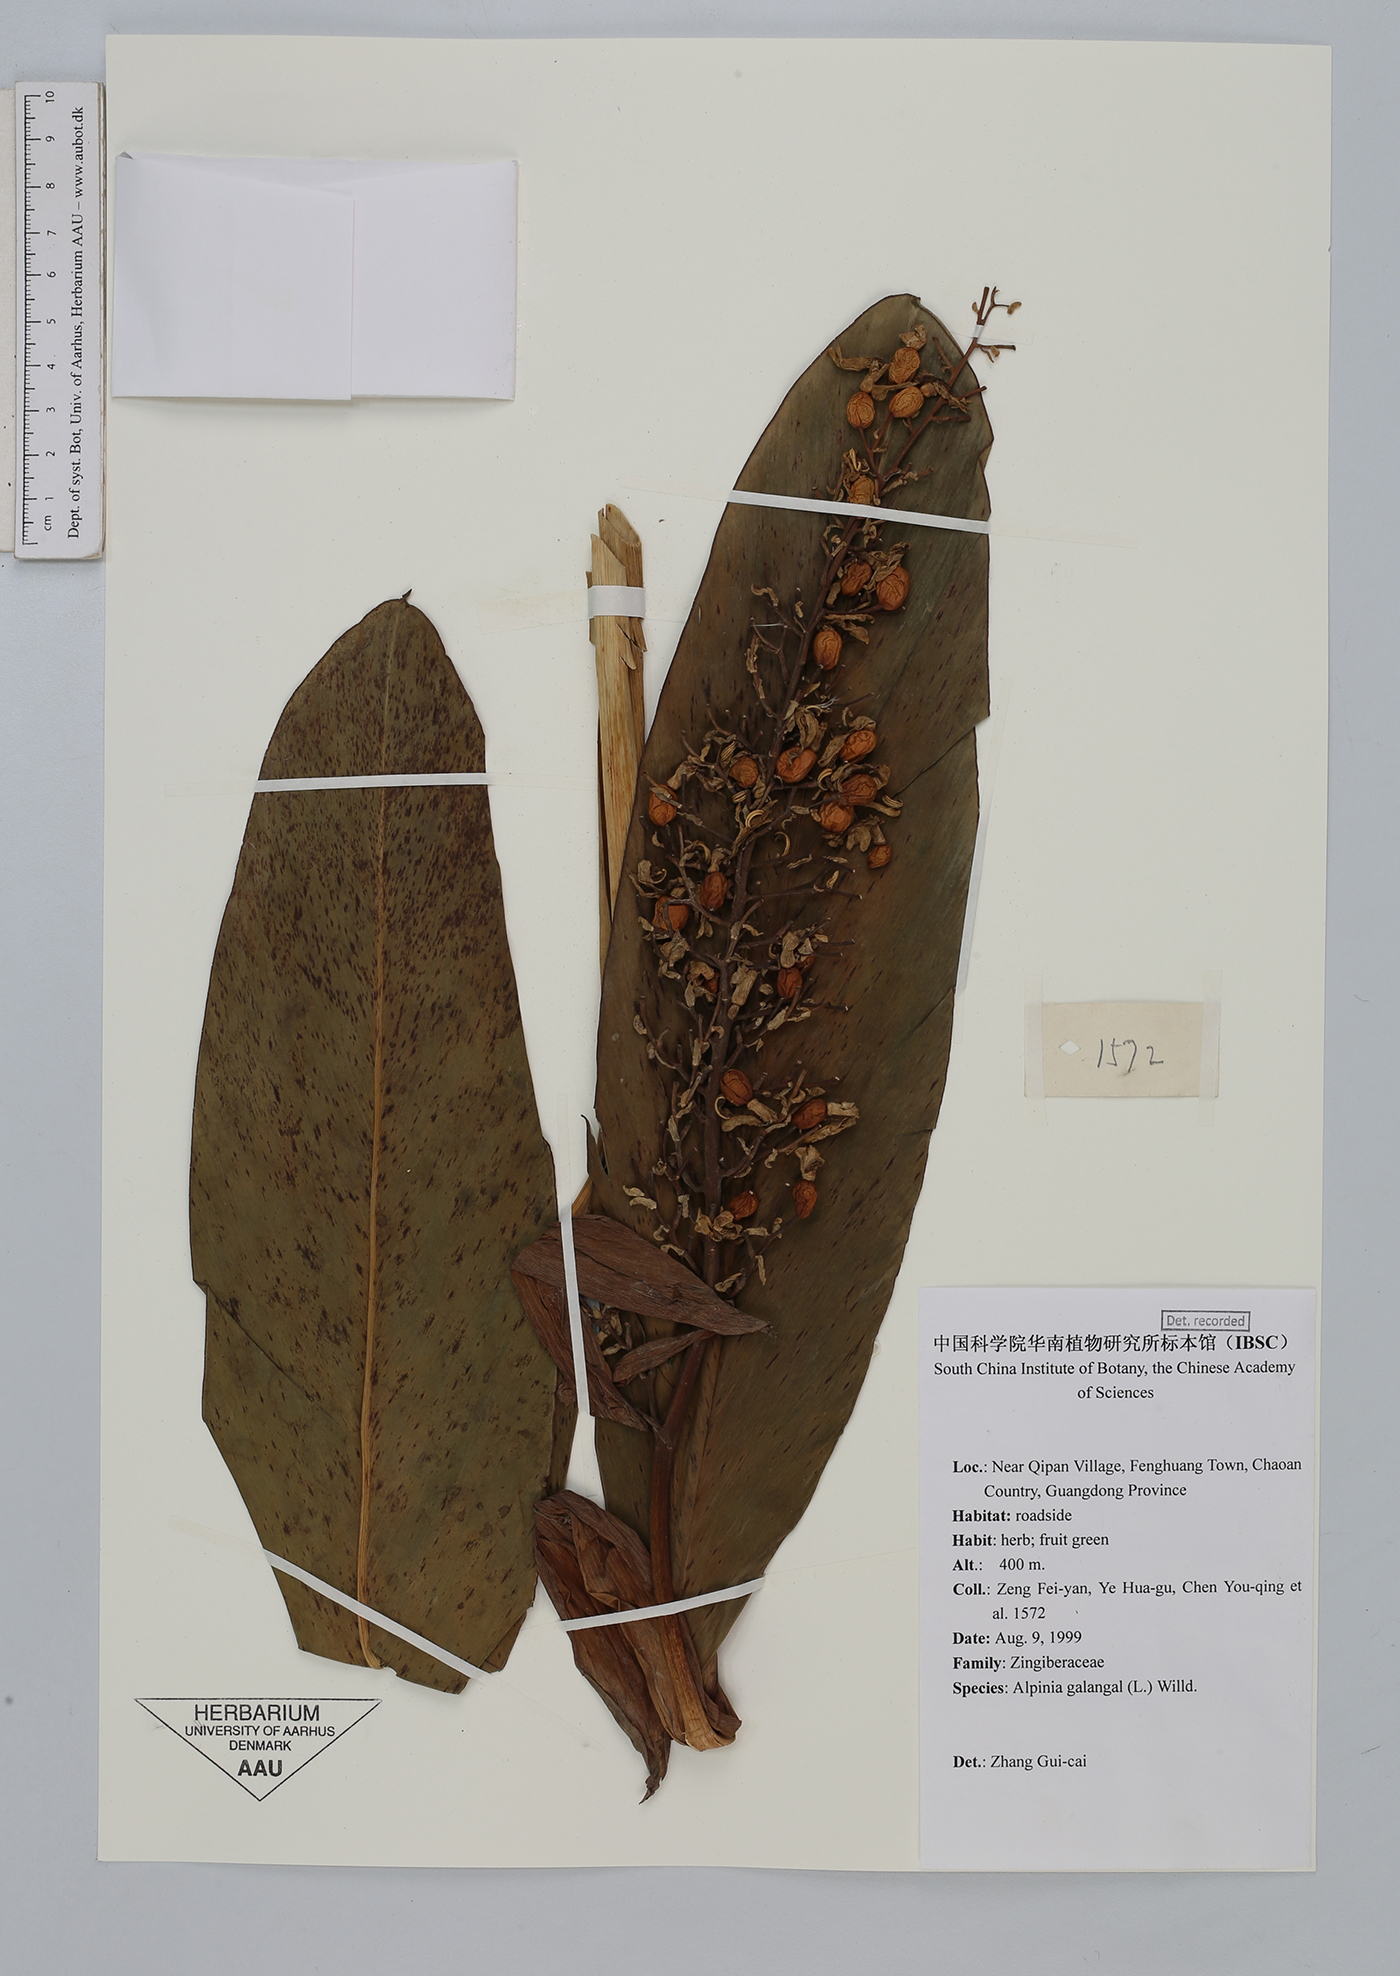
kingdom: Plantae
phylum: Tracheophyta
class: Liliopsida
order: Zingiberales
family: Zingiberaceae
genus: Alpinia
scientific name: Alpinia galanga
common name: Siamese-ginger
